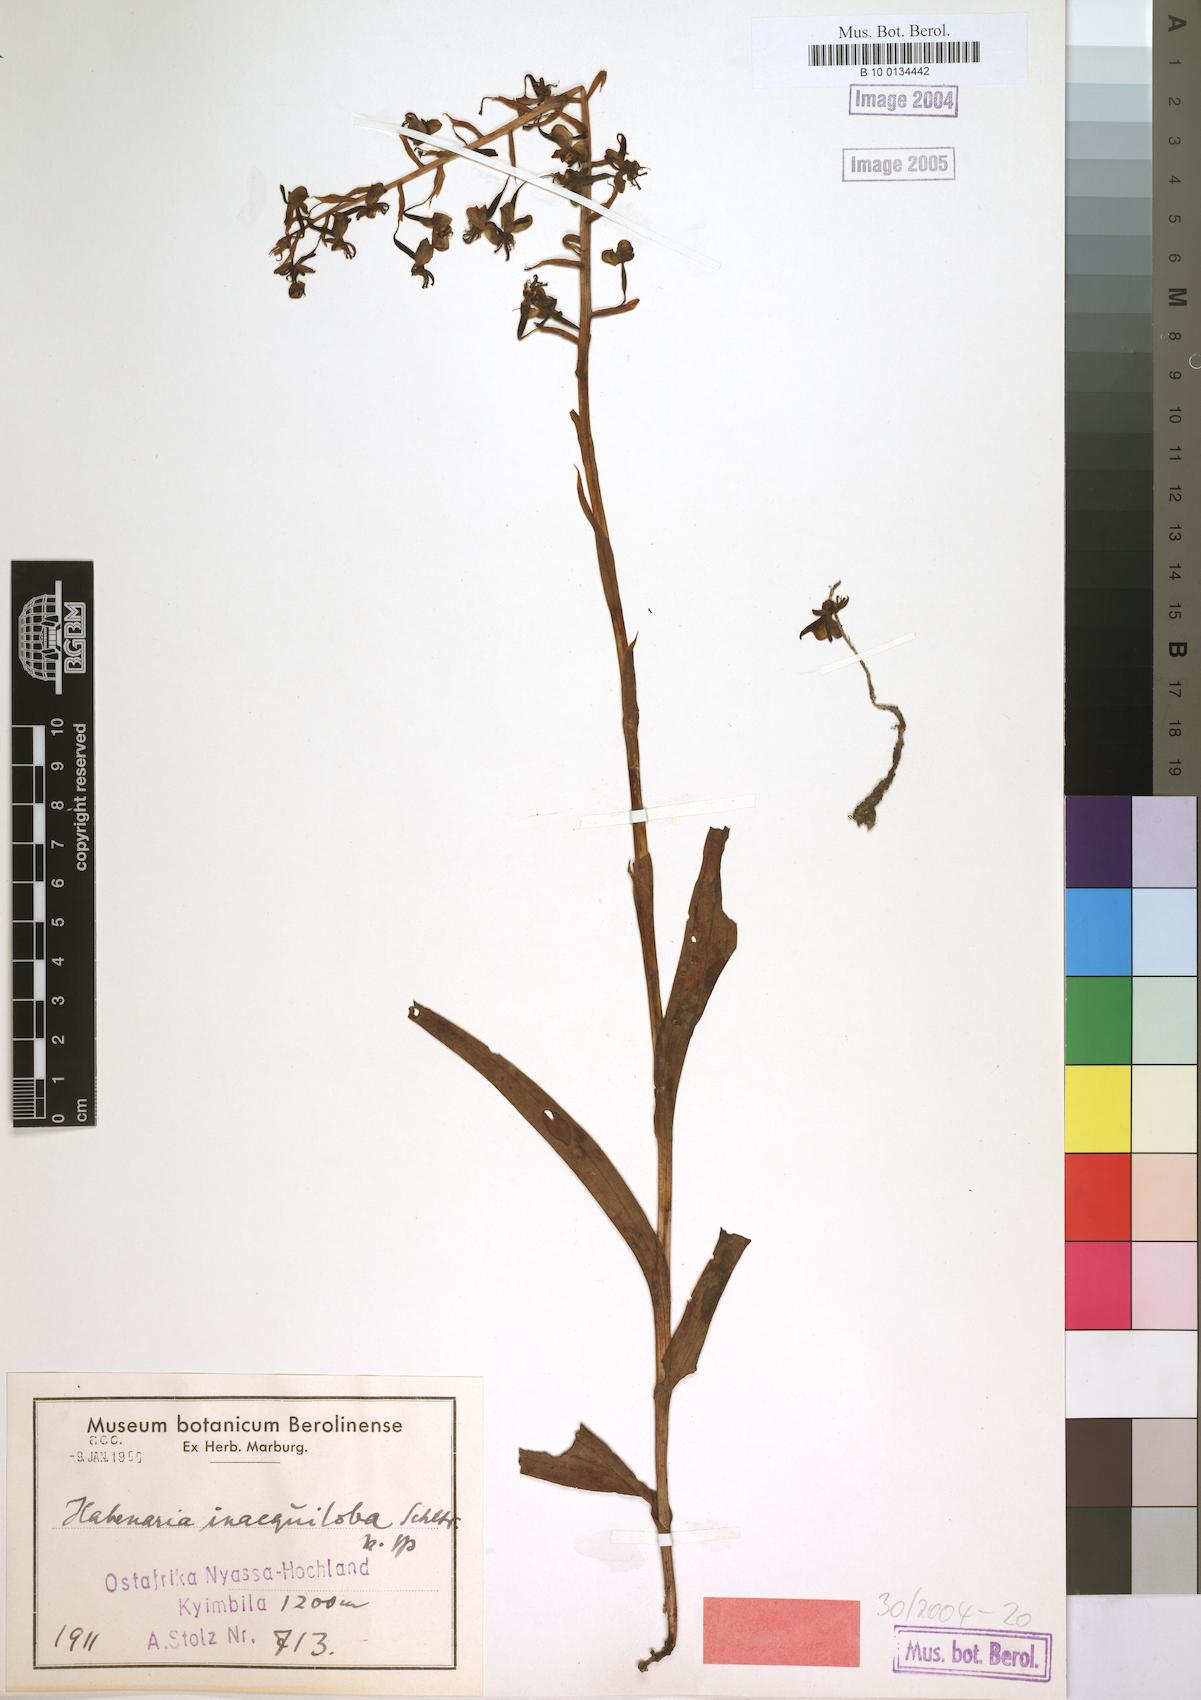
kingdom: Plantae
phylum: Tracheophyta
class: Liliopsida
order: Asparagales
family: Orchidaceae
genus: Habenaria
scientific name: Habenaria inaequiloba
